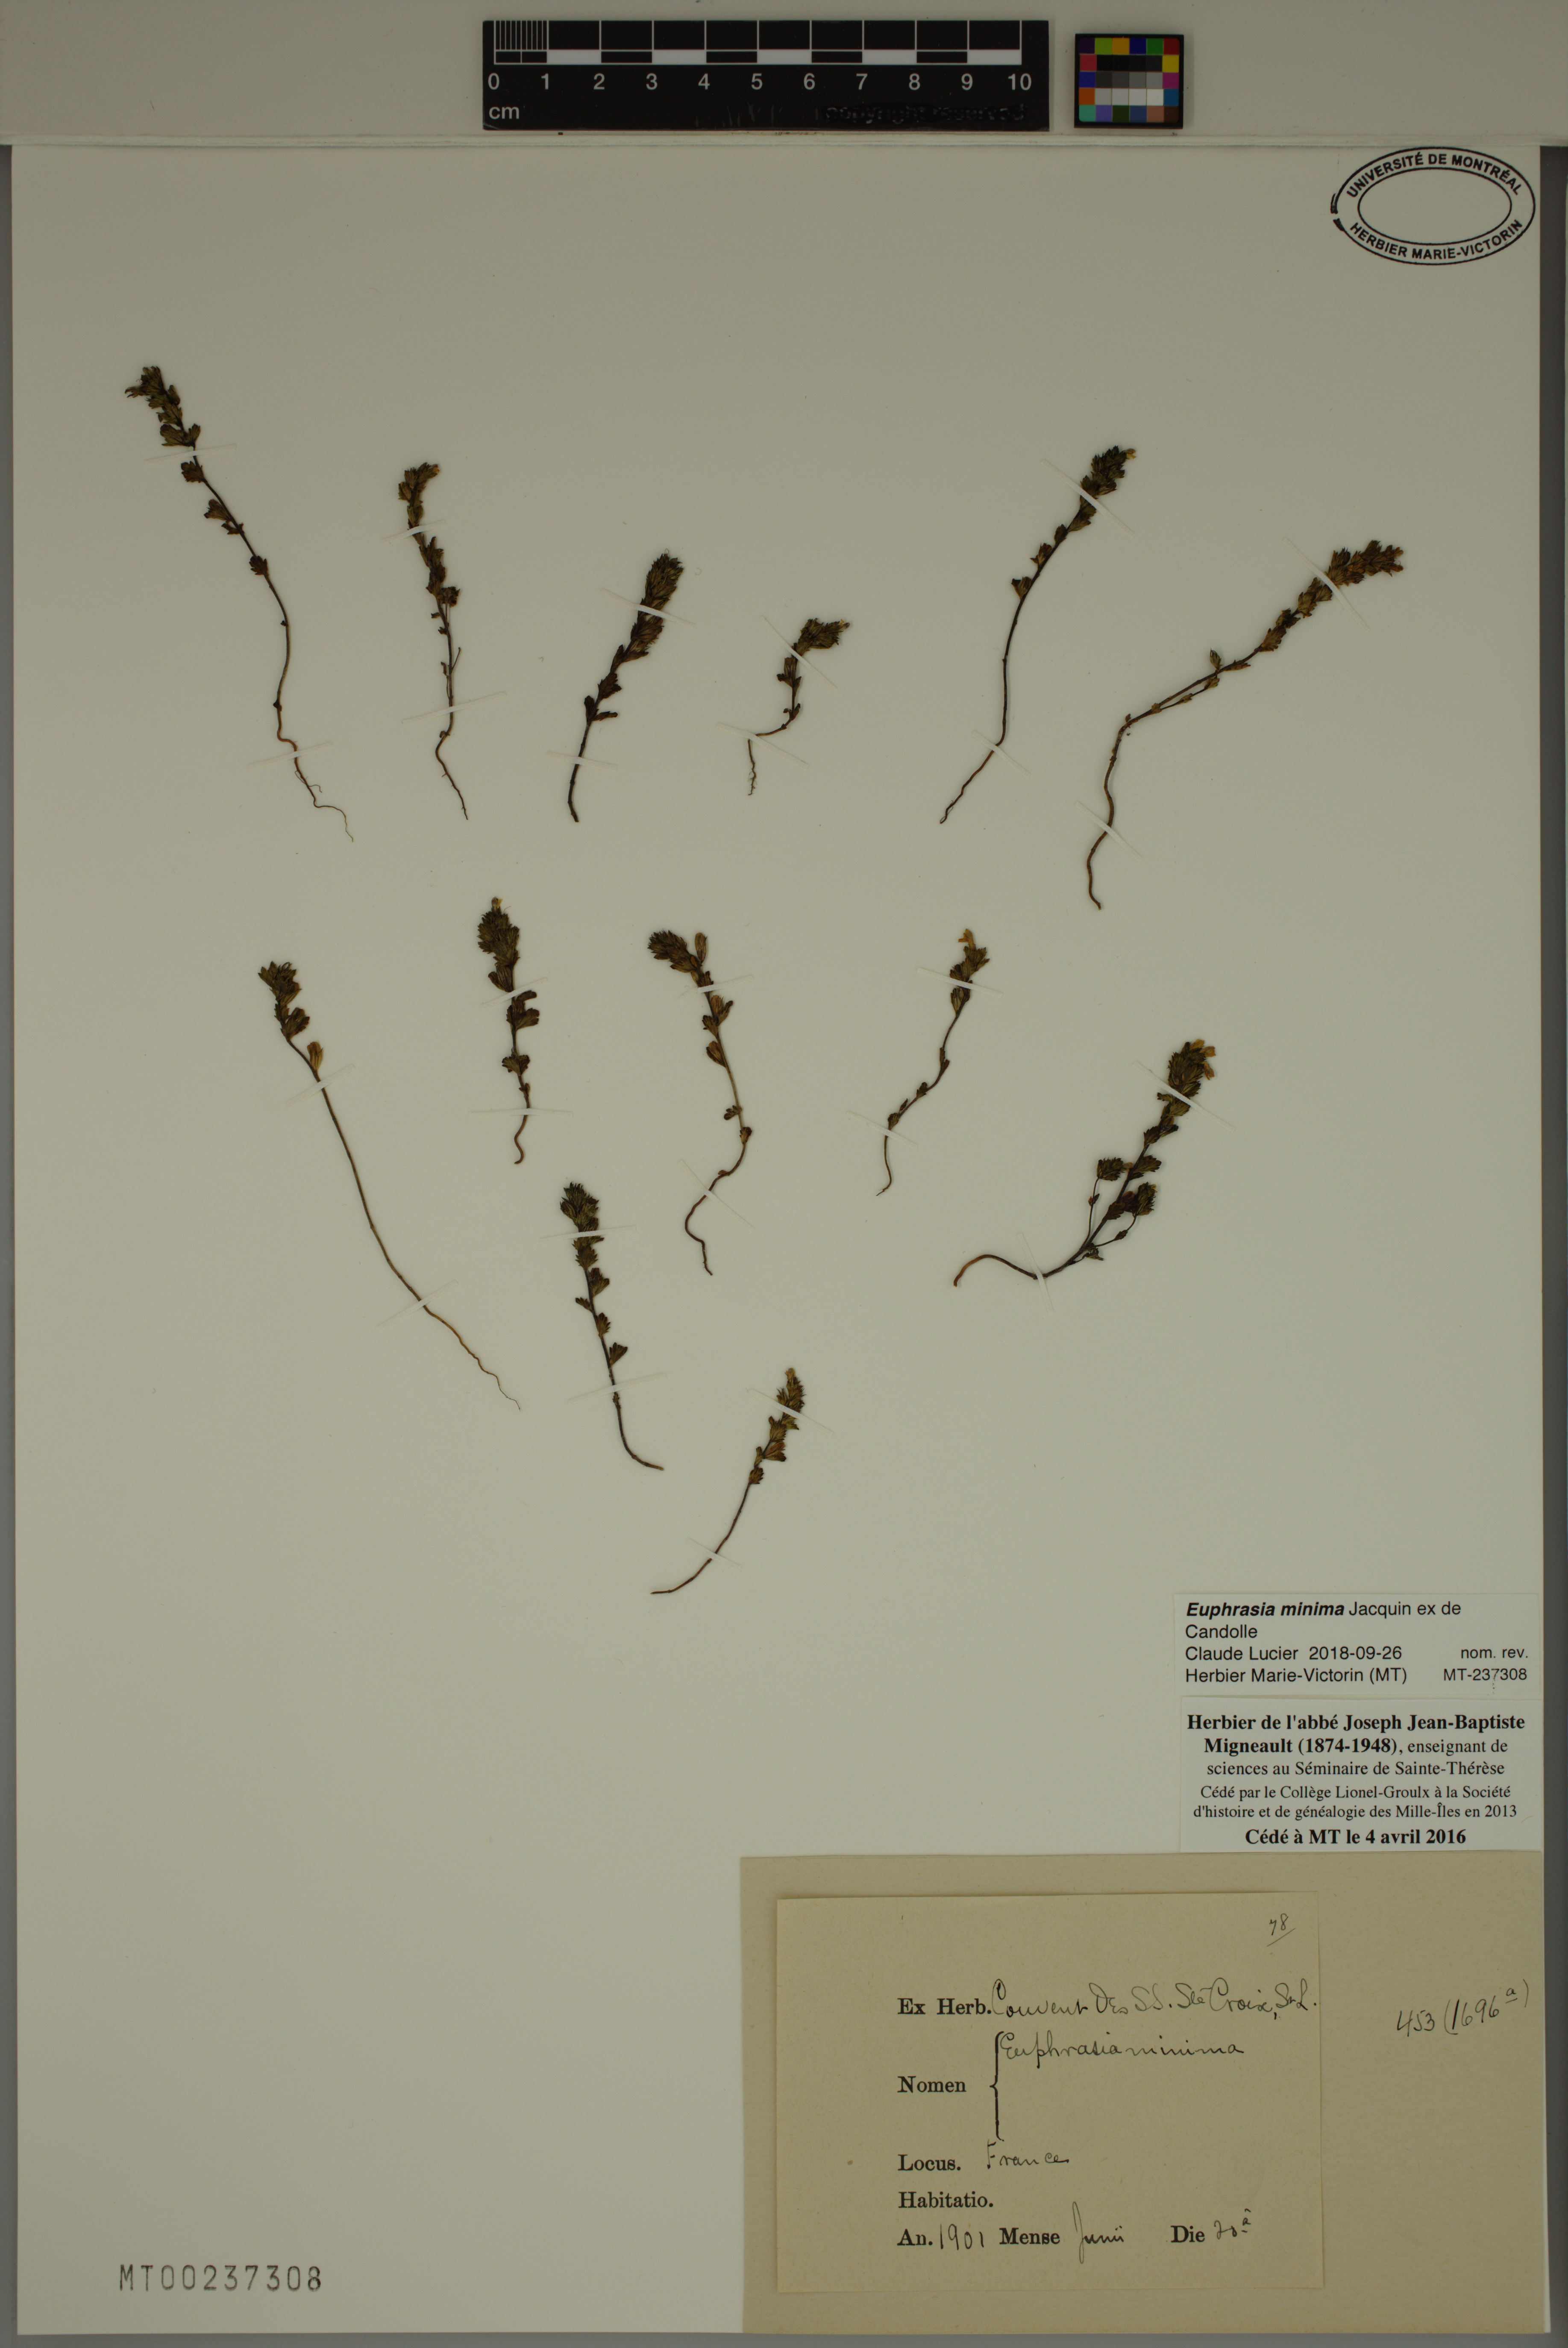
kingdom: Plantae
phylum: Tracheophyta
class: Magnoliopsida
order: Lamiales
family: Orobanchaceae
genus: Euphrasia
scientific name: Euphrasia minima
